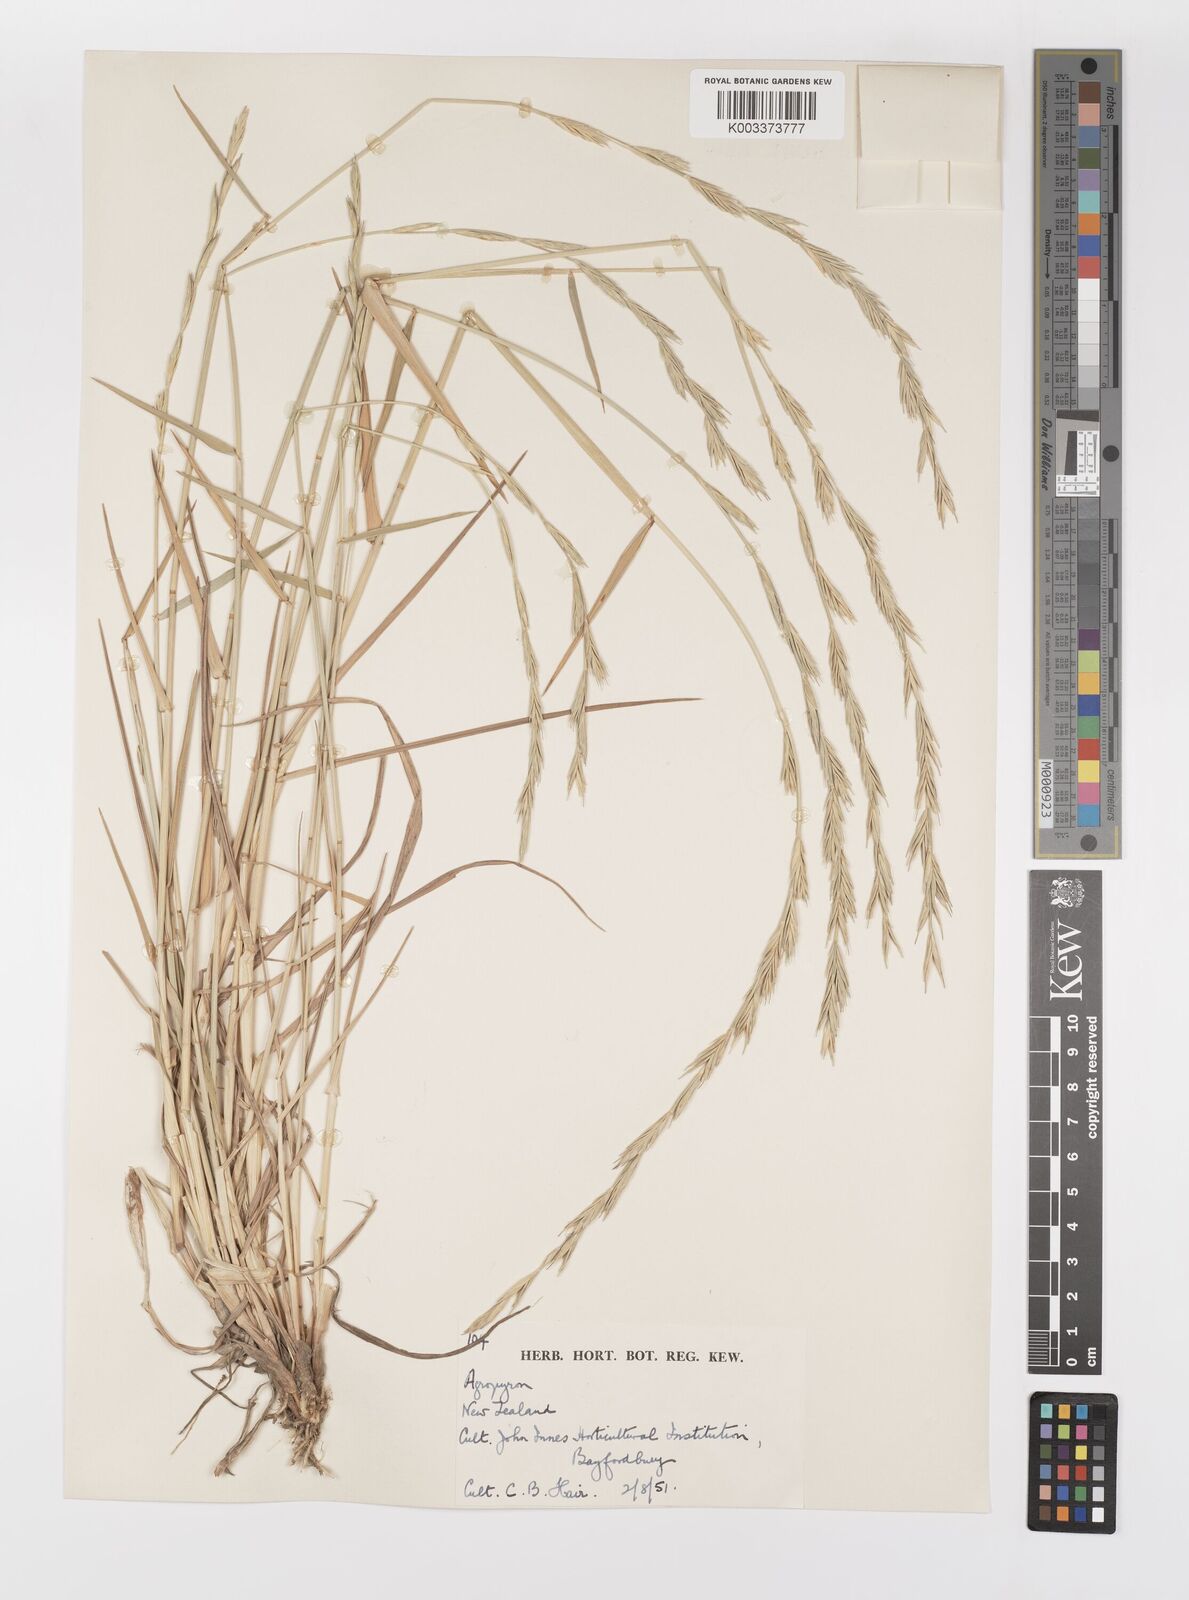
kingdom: Plantae
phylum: Tracheophyta
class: Liliopsida
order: Poales
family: Poaceae
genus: Elymus
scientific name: Elymus
